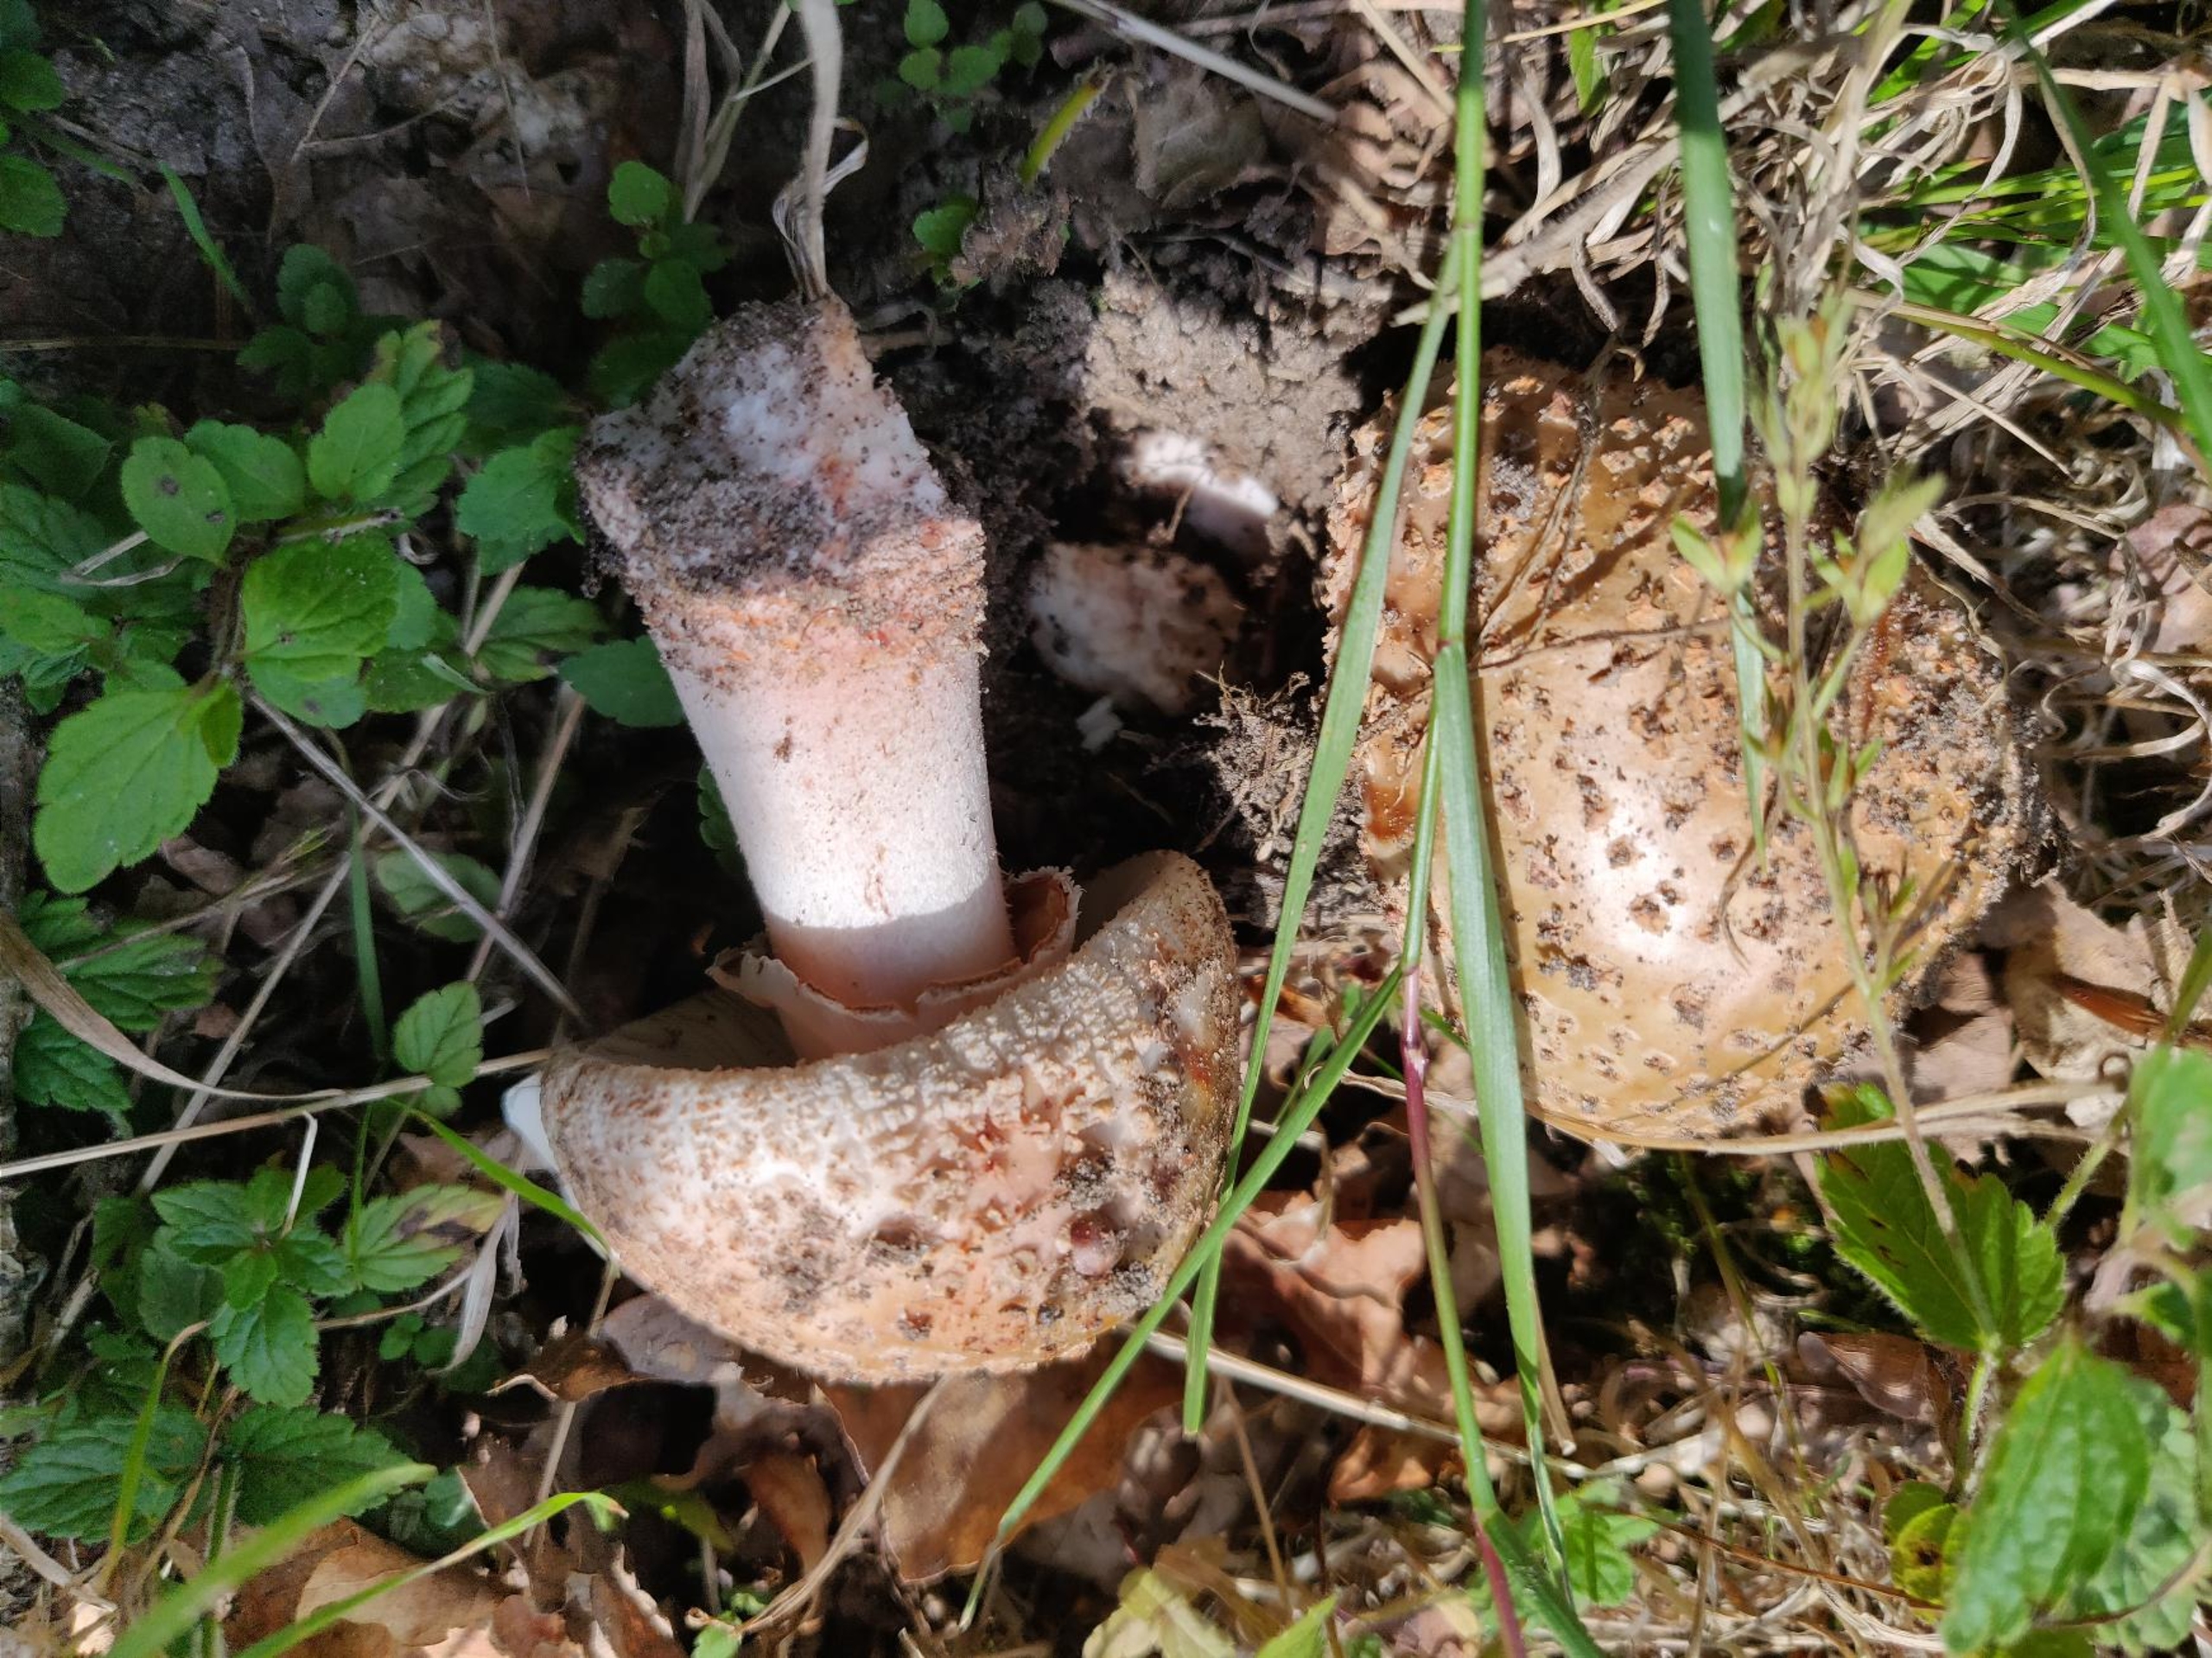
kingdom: Fungi
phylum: Basidiomycota
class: Agaricomycetes
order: Agaricales
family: Amanitaceae
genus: Amanita
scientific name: Amanita rubescens
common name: Rødmende fluesvamp
